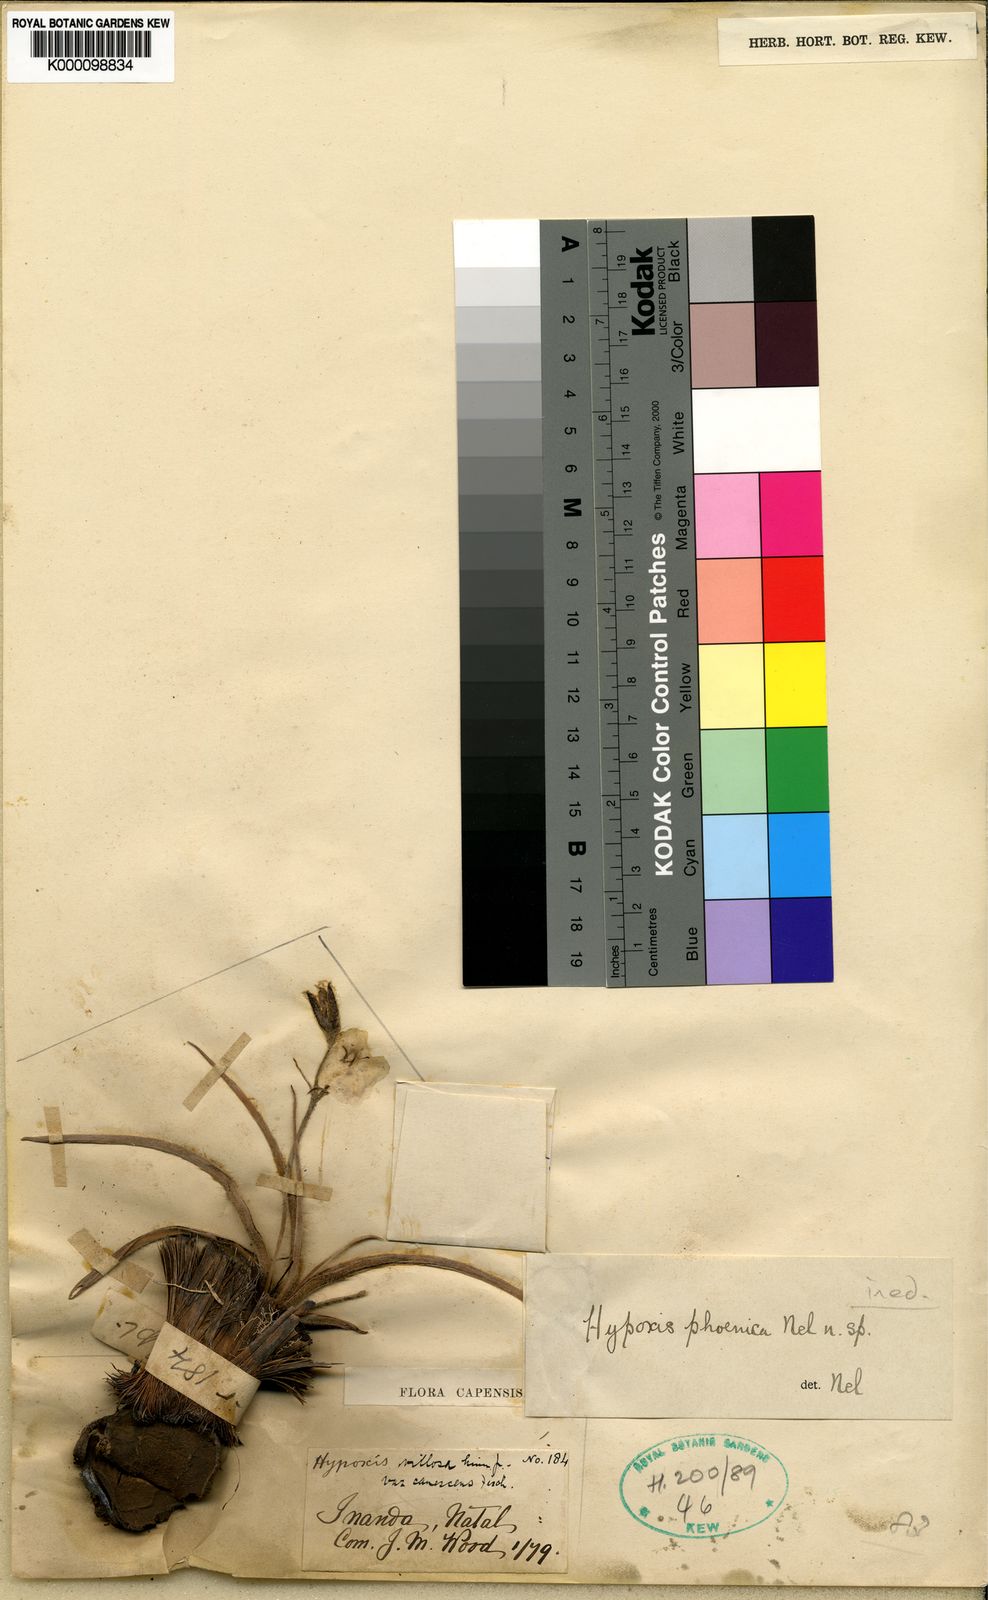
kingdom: Plantae
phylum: Tracheophyta
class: Liliopsida
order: Asparagales
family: Hypoxidaceae
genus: Hypoxis
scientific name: Hypoxis
